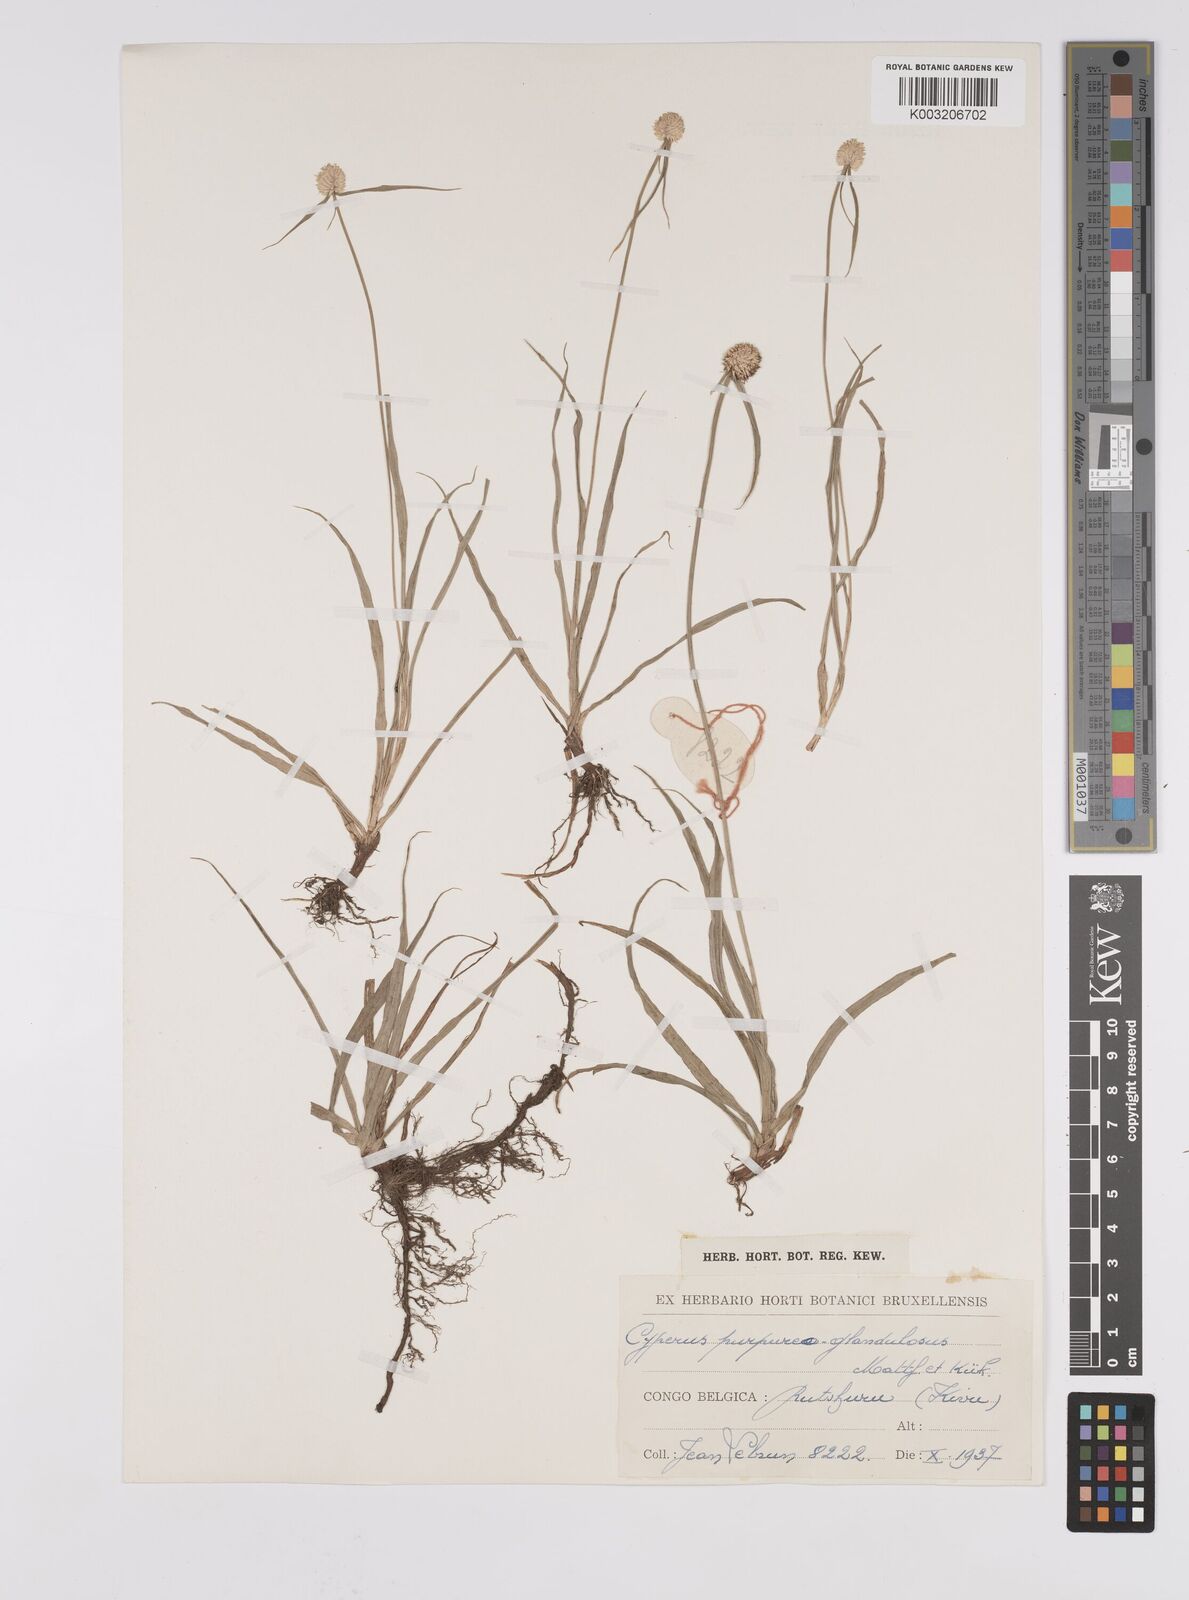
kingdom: Plantae
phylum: Tracheophyta
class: Liliopsida
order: Poales
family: Cyperaceae
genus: Cyperus
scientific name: Cyperus sphaerolepis
